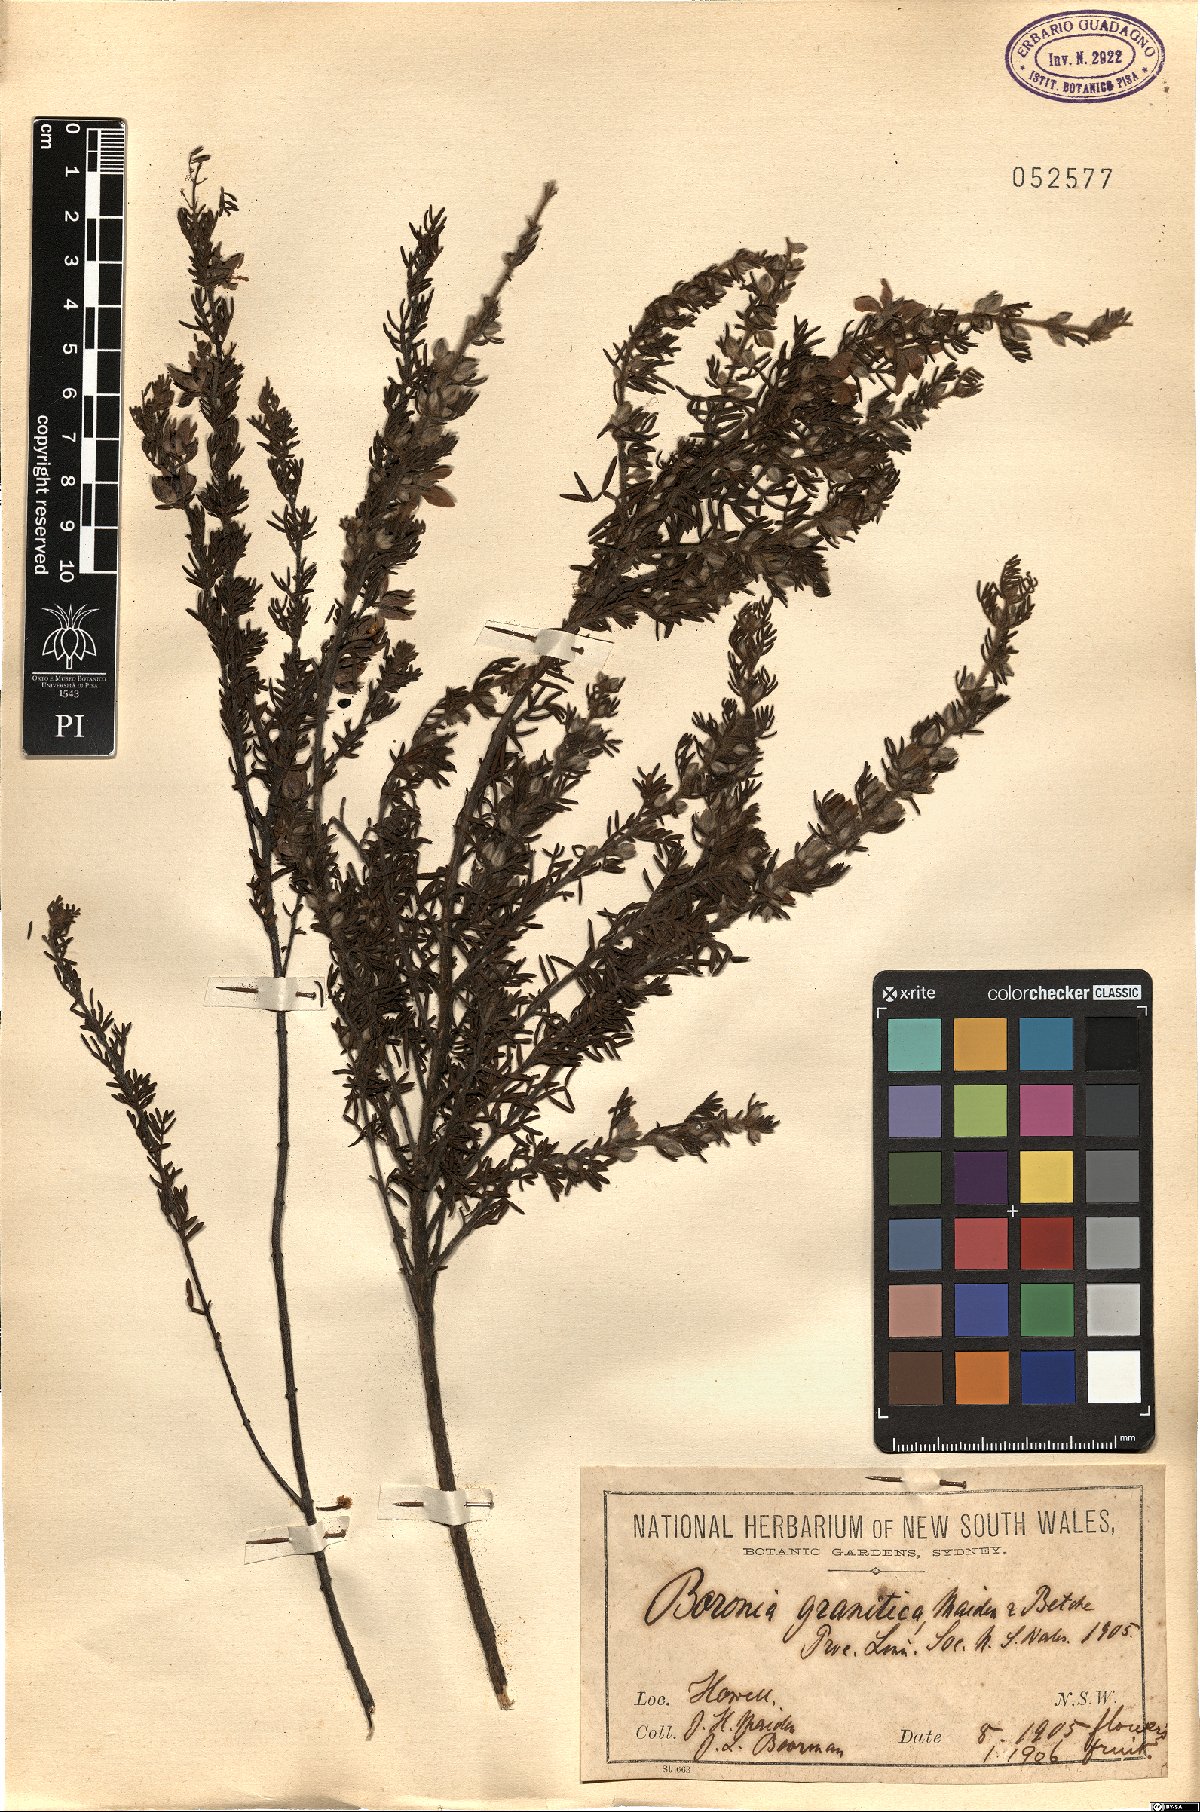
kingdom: Plantae
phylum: Tracheophyta
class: Magnoliopsida
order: Sapindales
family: Rutaceae
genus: Boronia
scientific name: Boronia granitica
